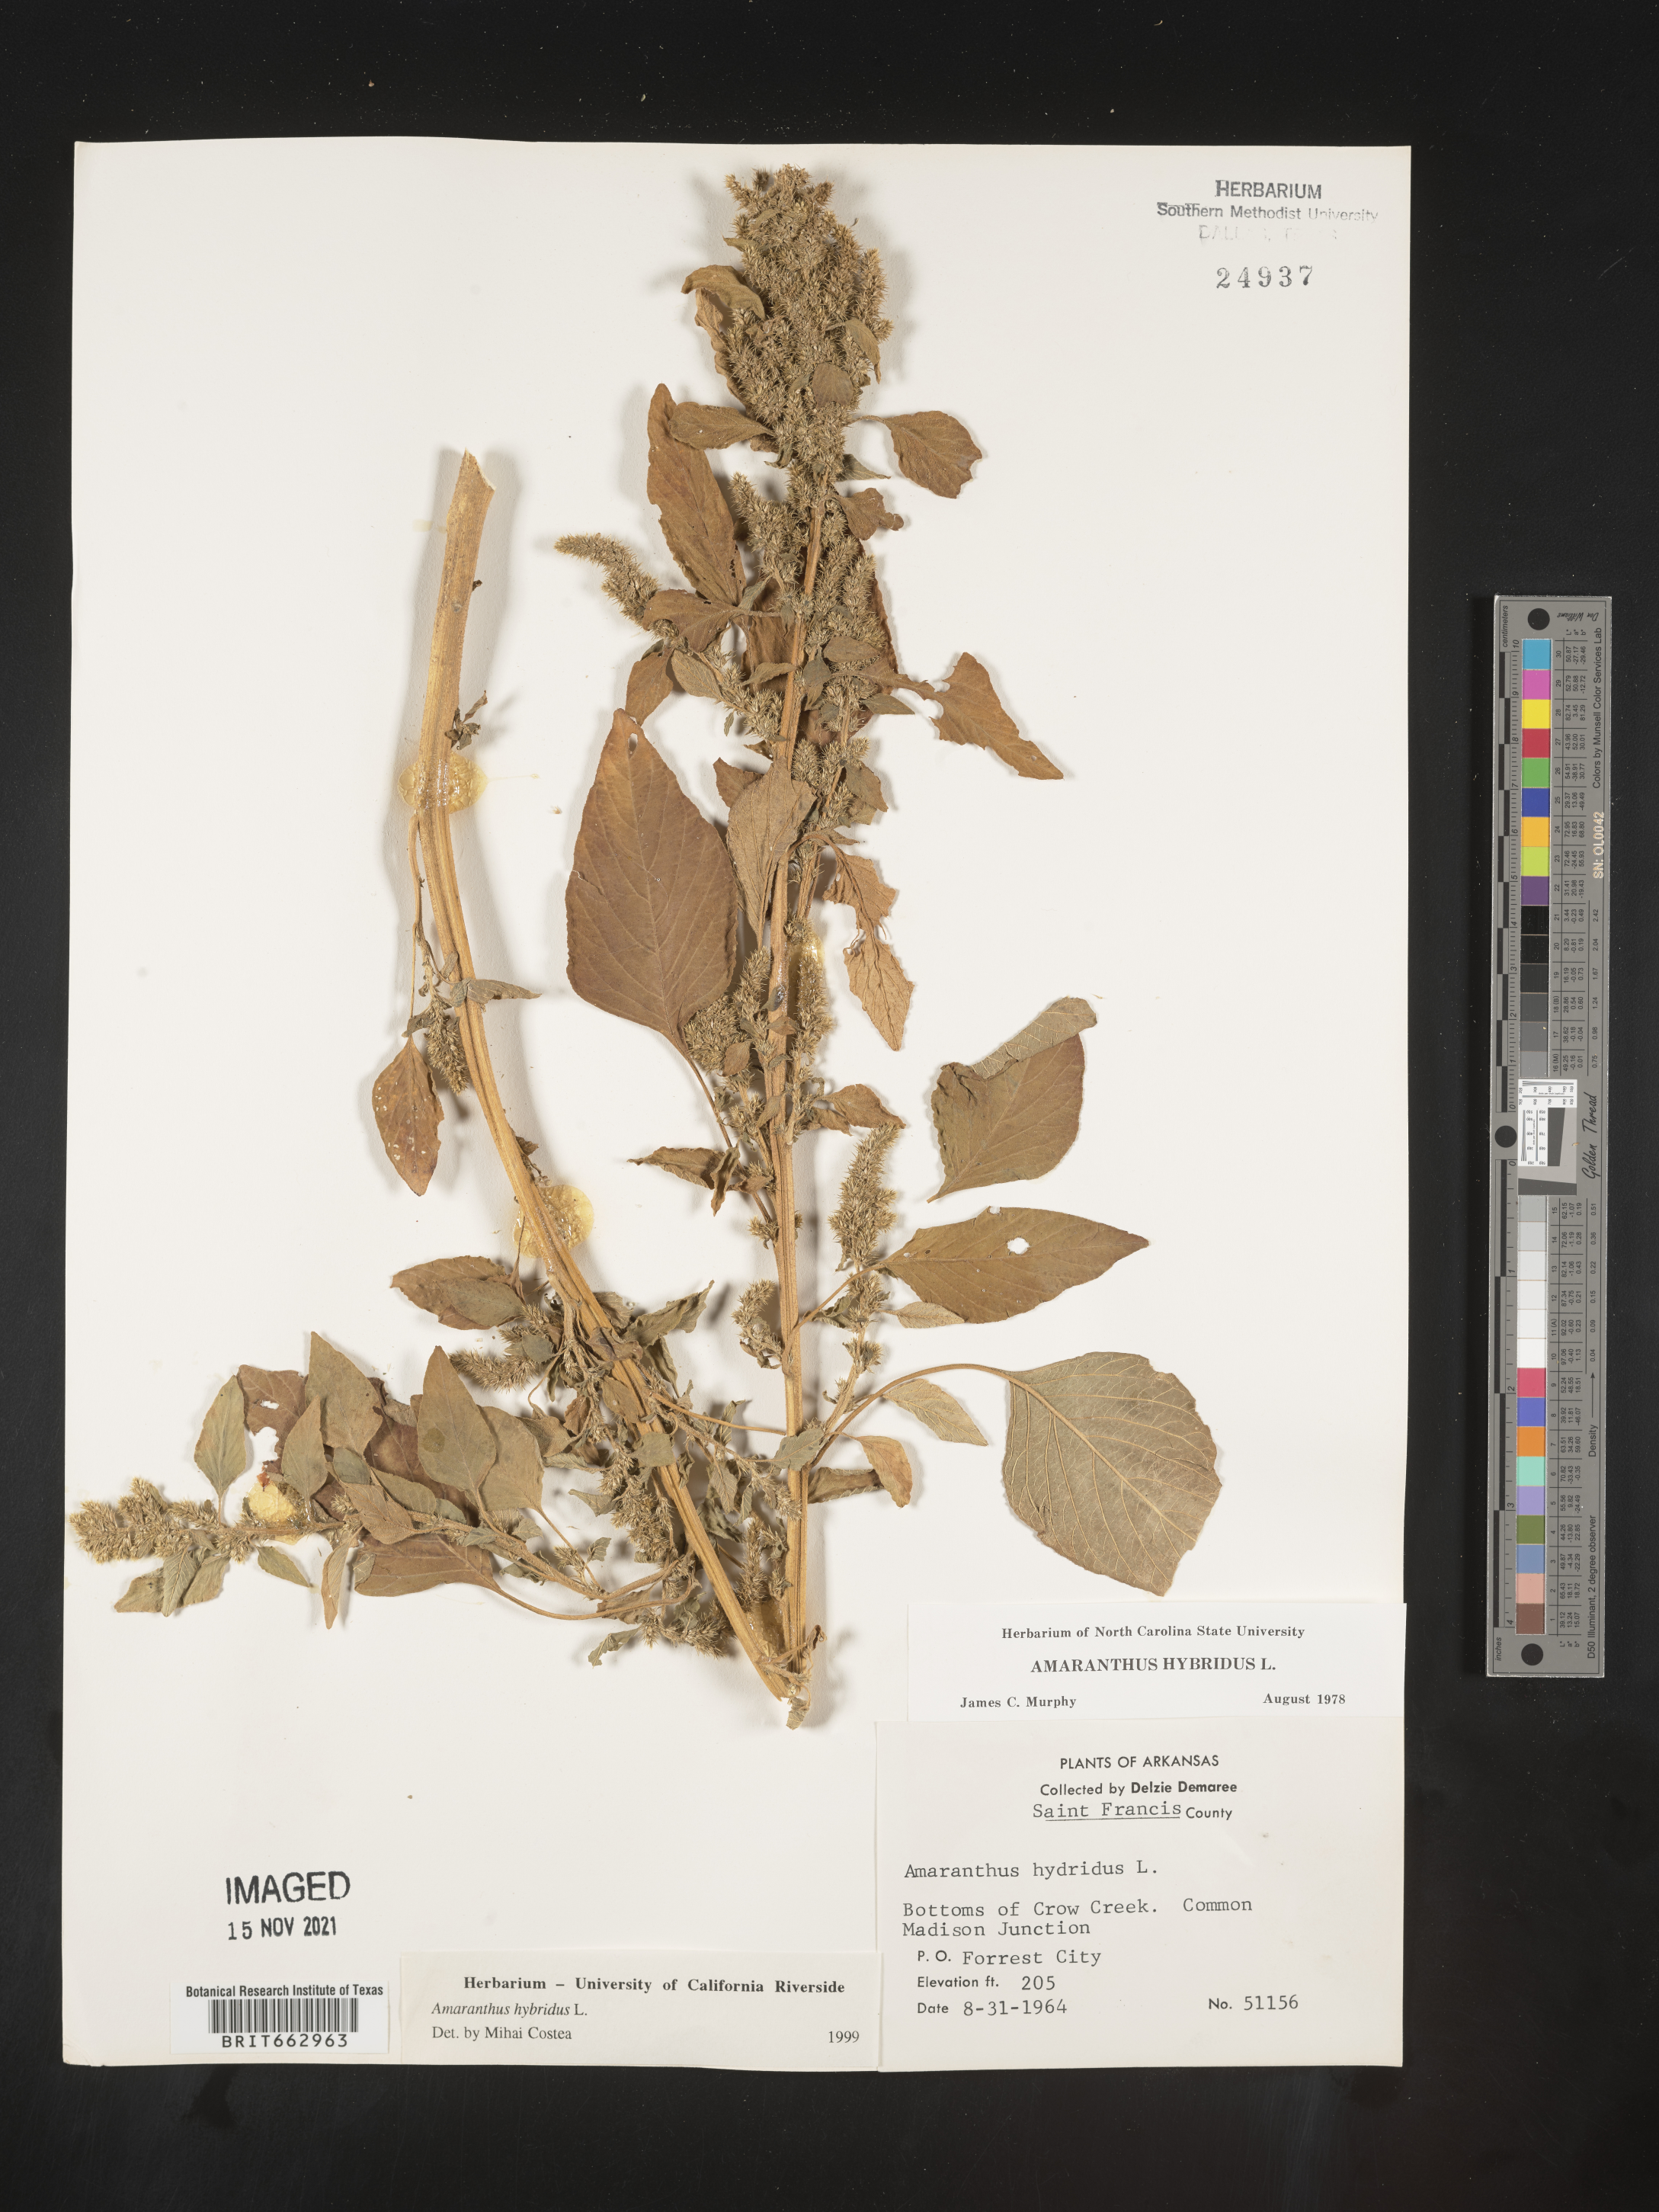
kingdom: Plantae
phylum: Tracheophyta
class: Magnoliopsida
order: Caryophyllales
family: Amaranthaceae
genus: Amaranthus
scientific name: Amaranthus hybridus
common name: Green amaranth
